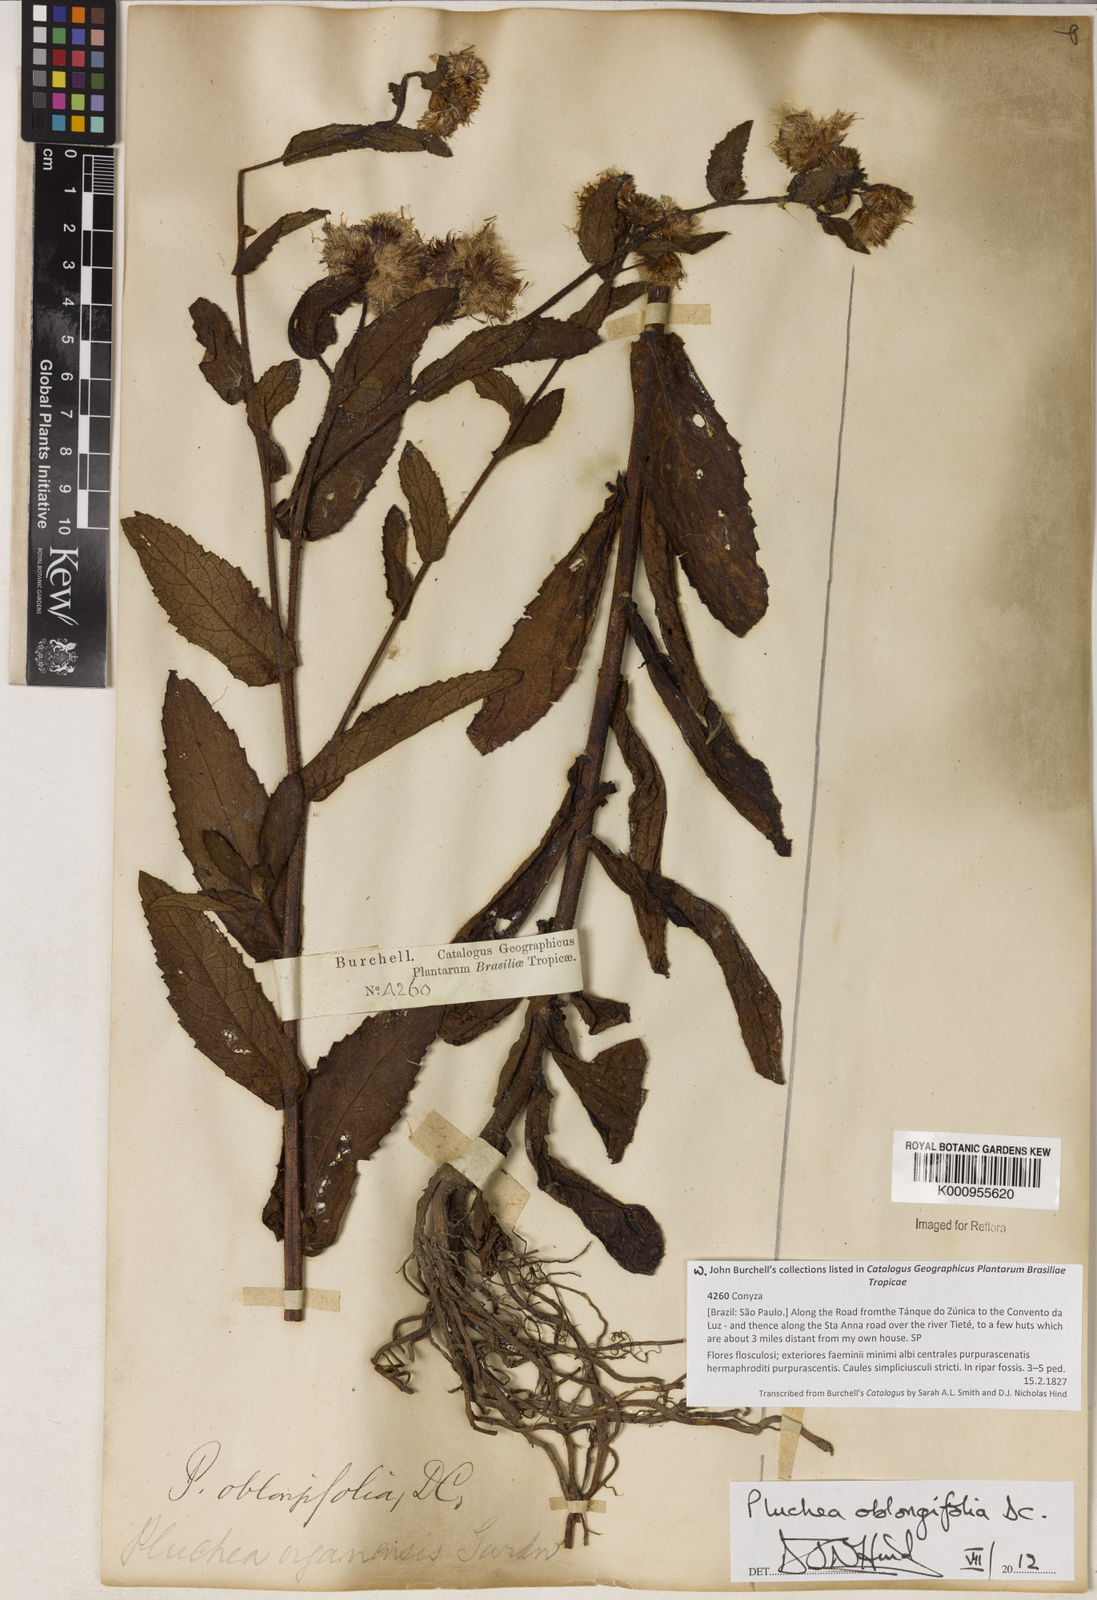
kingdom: Plantae
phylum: Tracheophyta
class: Magnoliopsida
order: Asterales
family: Asteraceae
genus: Pluchea
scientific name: Pluchea oblongifolia
